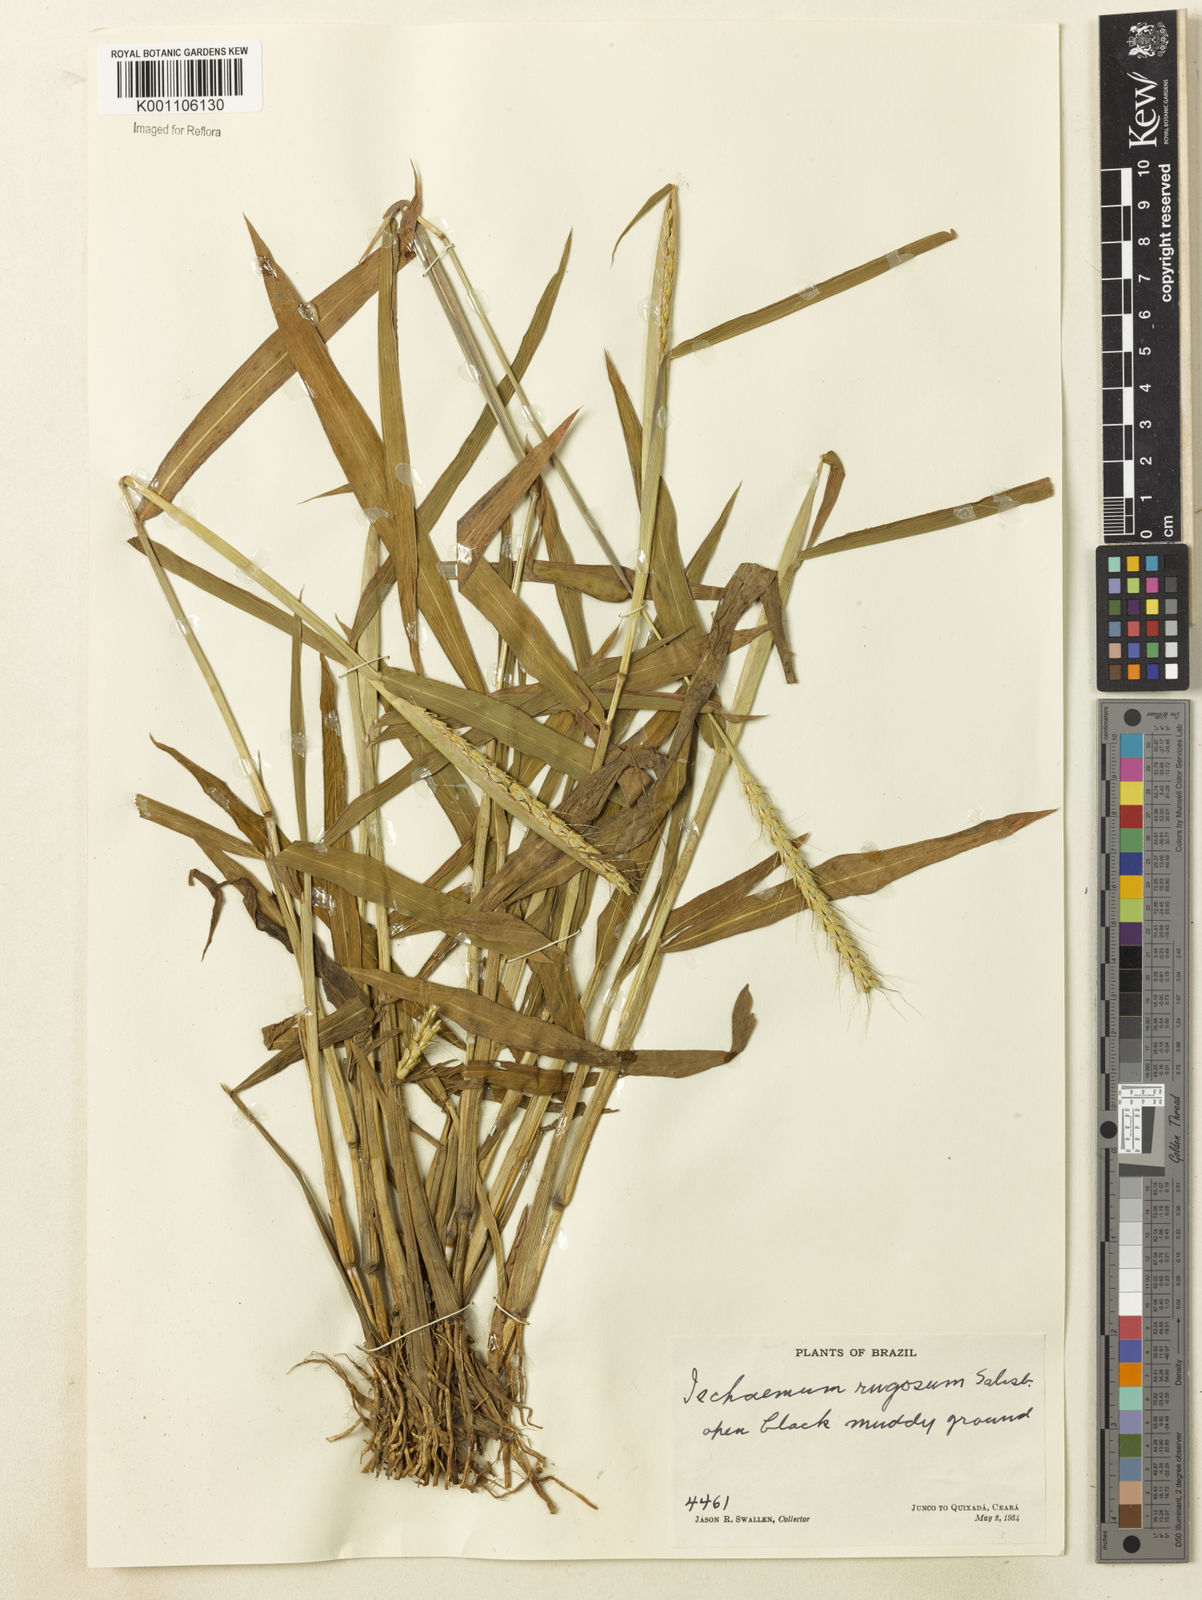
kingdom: Plantae
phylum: Tracheophyta
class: Liliopsida
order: Poales
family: Poaceae
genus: Ischaemum
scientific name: Ischaemum rugosum
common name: Saramatta grass
